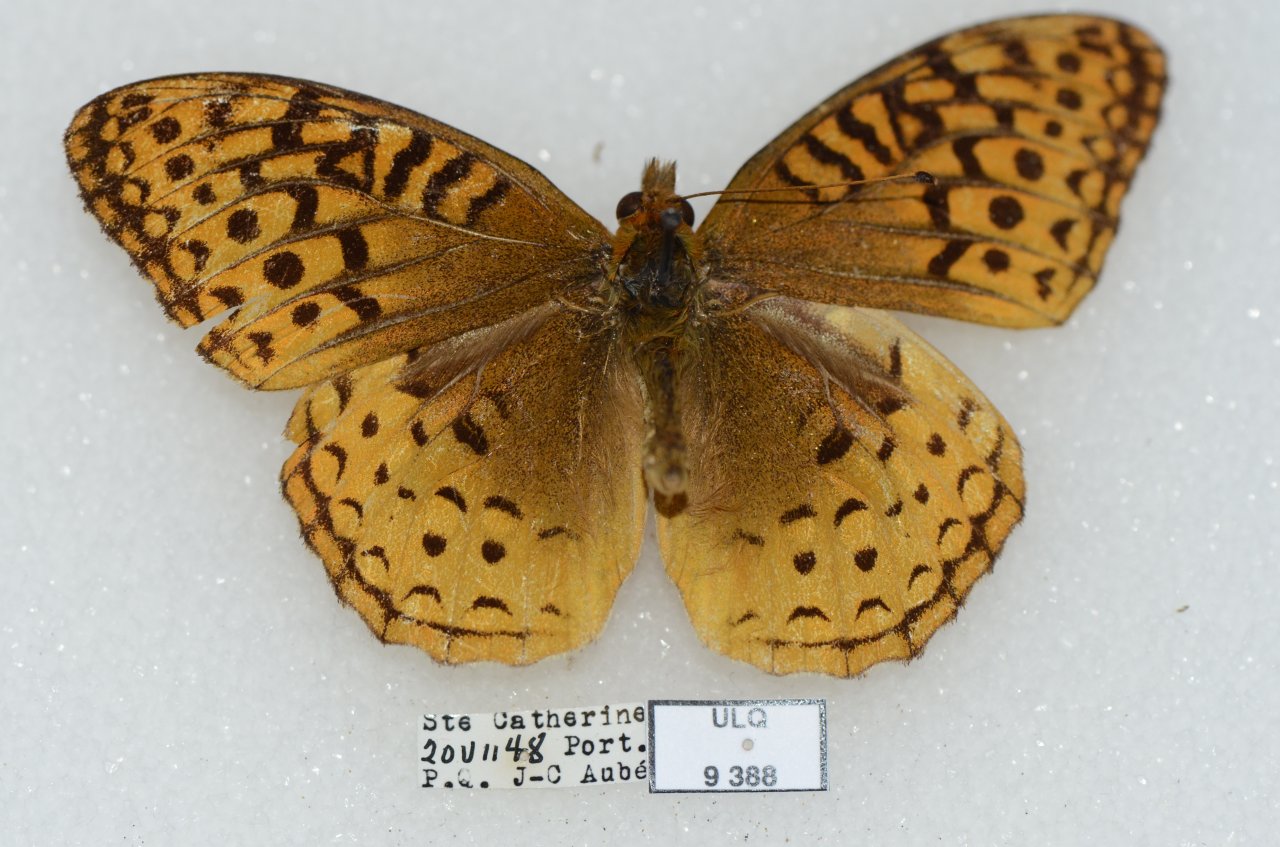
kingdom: Animalia
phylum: Arthropoda
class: Insecta
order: Lepidoptera
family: Nymphalidae
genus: Speyeria
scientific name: Speyeria cybele
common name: Great Spangled Fritillary
